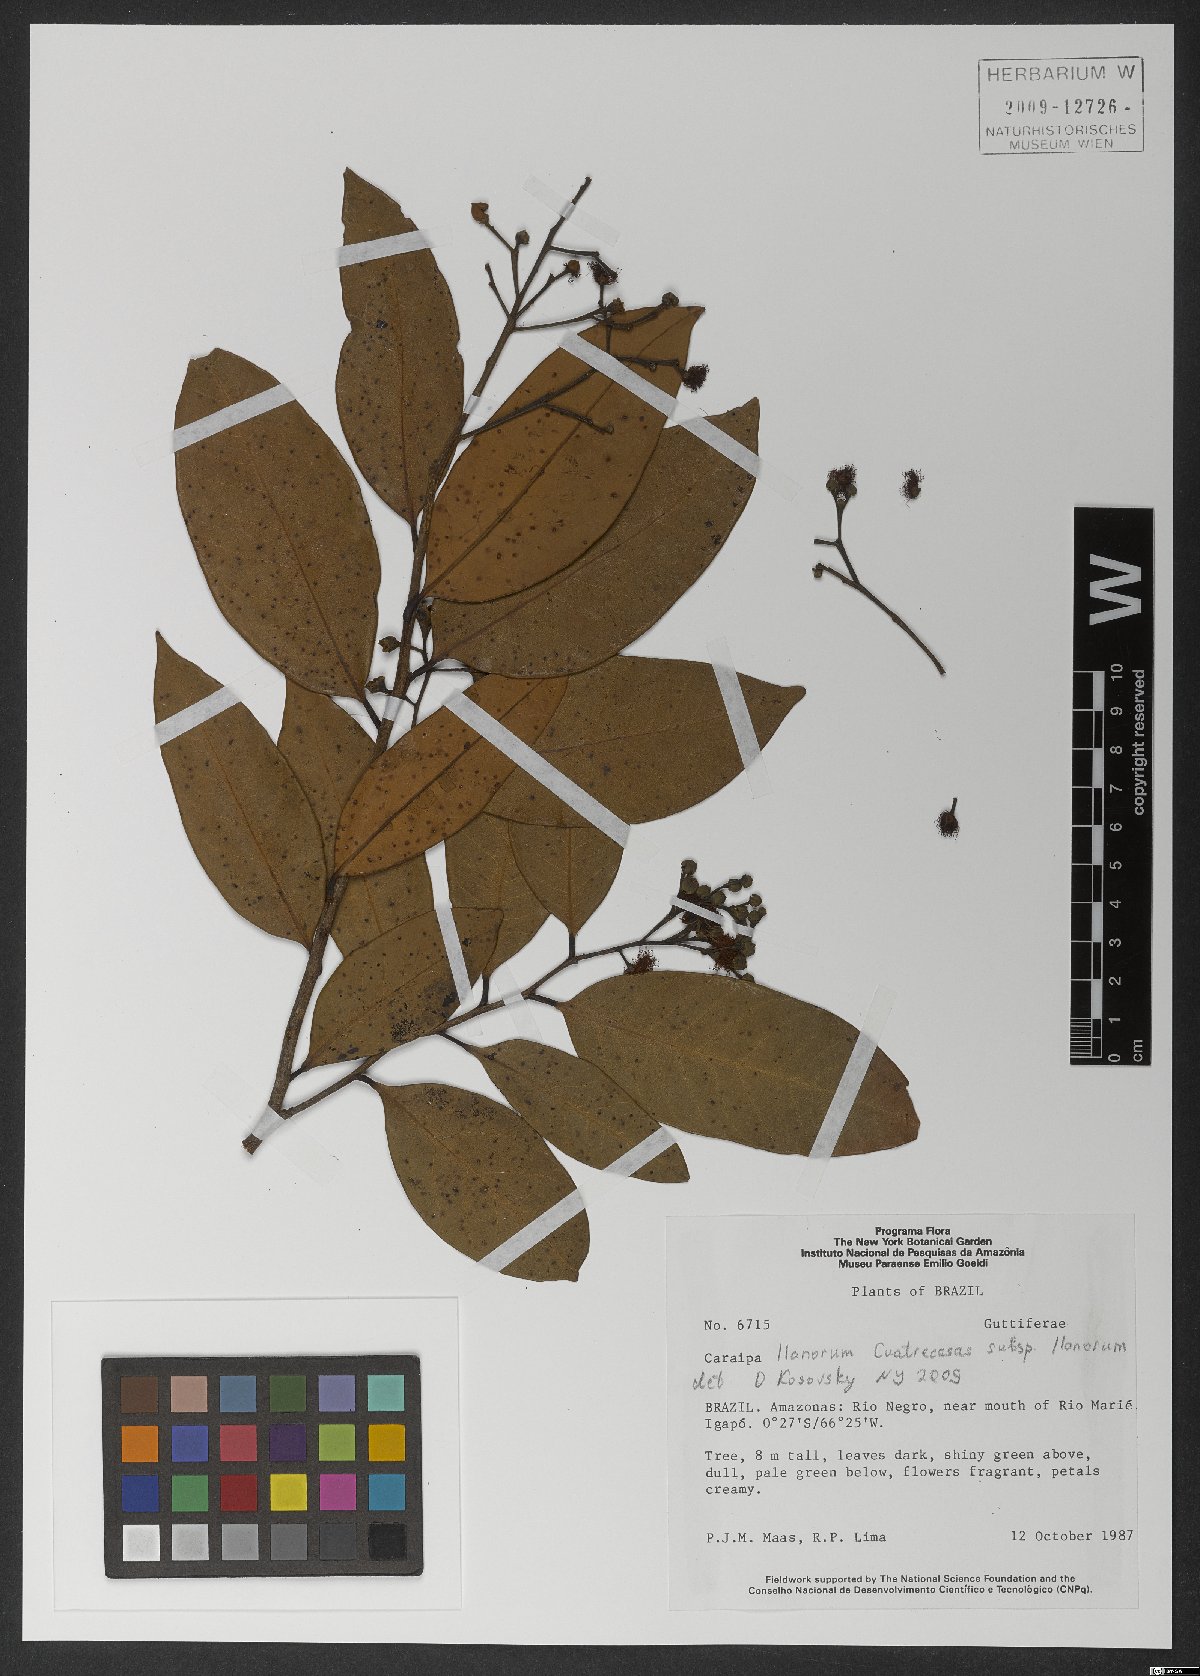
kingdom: Plantae
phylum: Tracheophyta
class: Magnoliopsida
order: Malpighiales
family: Calophyllaceae
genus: Caraipa
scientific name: Caraipa llanorum
